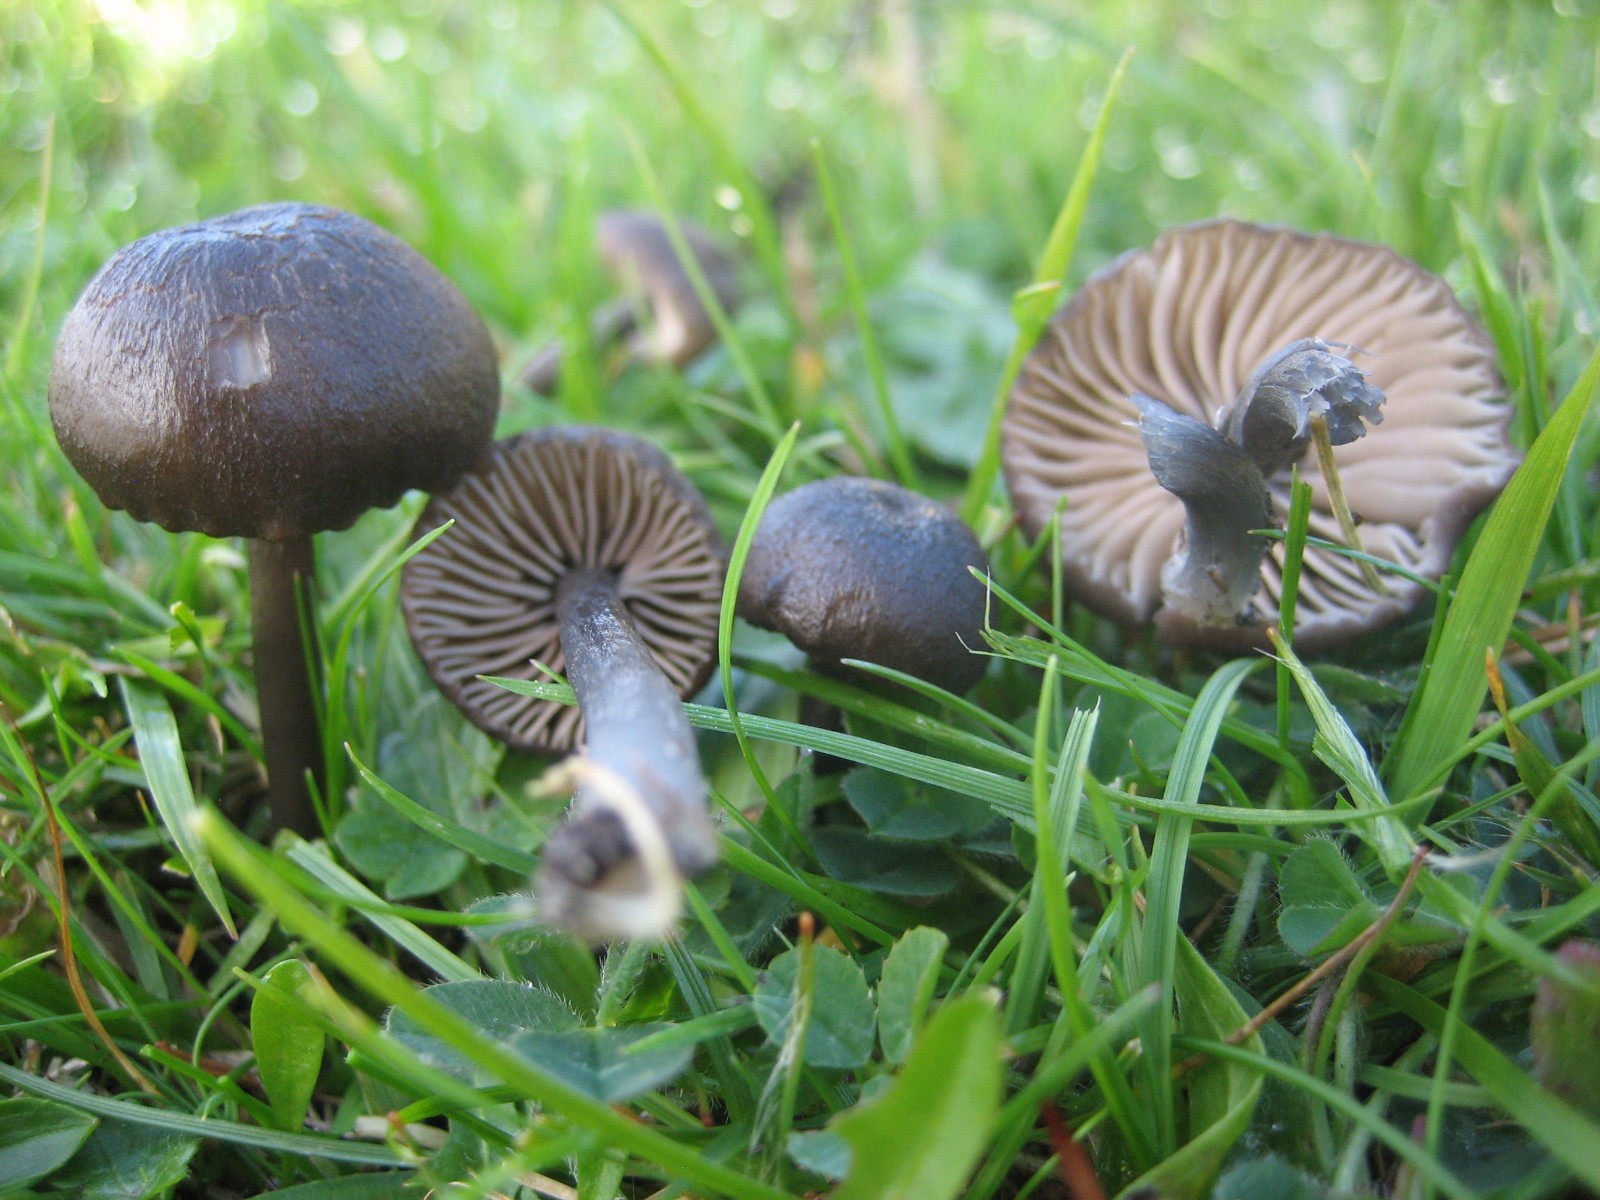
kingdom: Fungi
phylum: Basidiomycota
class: Agaricomycetes
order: Agaricales
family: Entolomataceae
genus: Entoloma
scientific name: Entoloma
